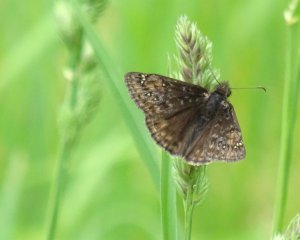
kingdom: Animalia
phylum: Arthropoda
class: Insecta
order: Lepidoptera
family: Hesperiidae
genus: Gesta
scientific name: Gesta
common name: Juvenal's Duskywing
